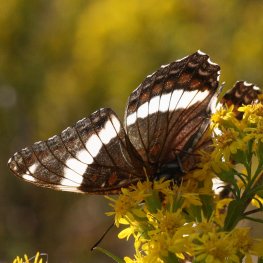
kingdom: Animalia
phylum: Arthropoda
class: Insecta
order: Lepidoptera
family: Nymphalidae
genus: Limenitis
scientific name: Limenitis arthemis
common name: Red-spotted Admiral
